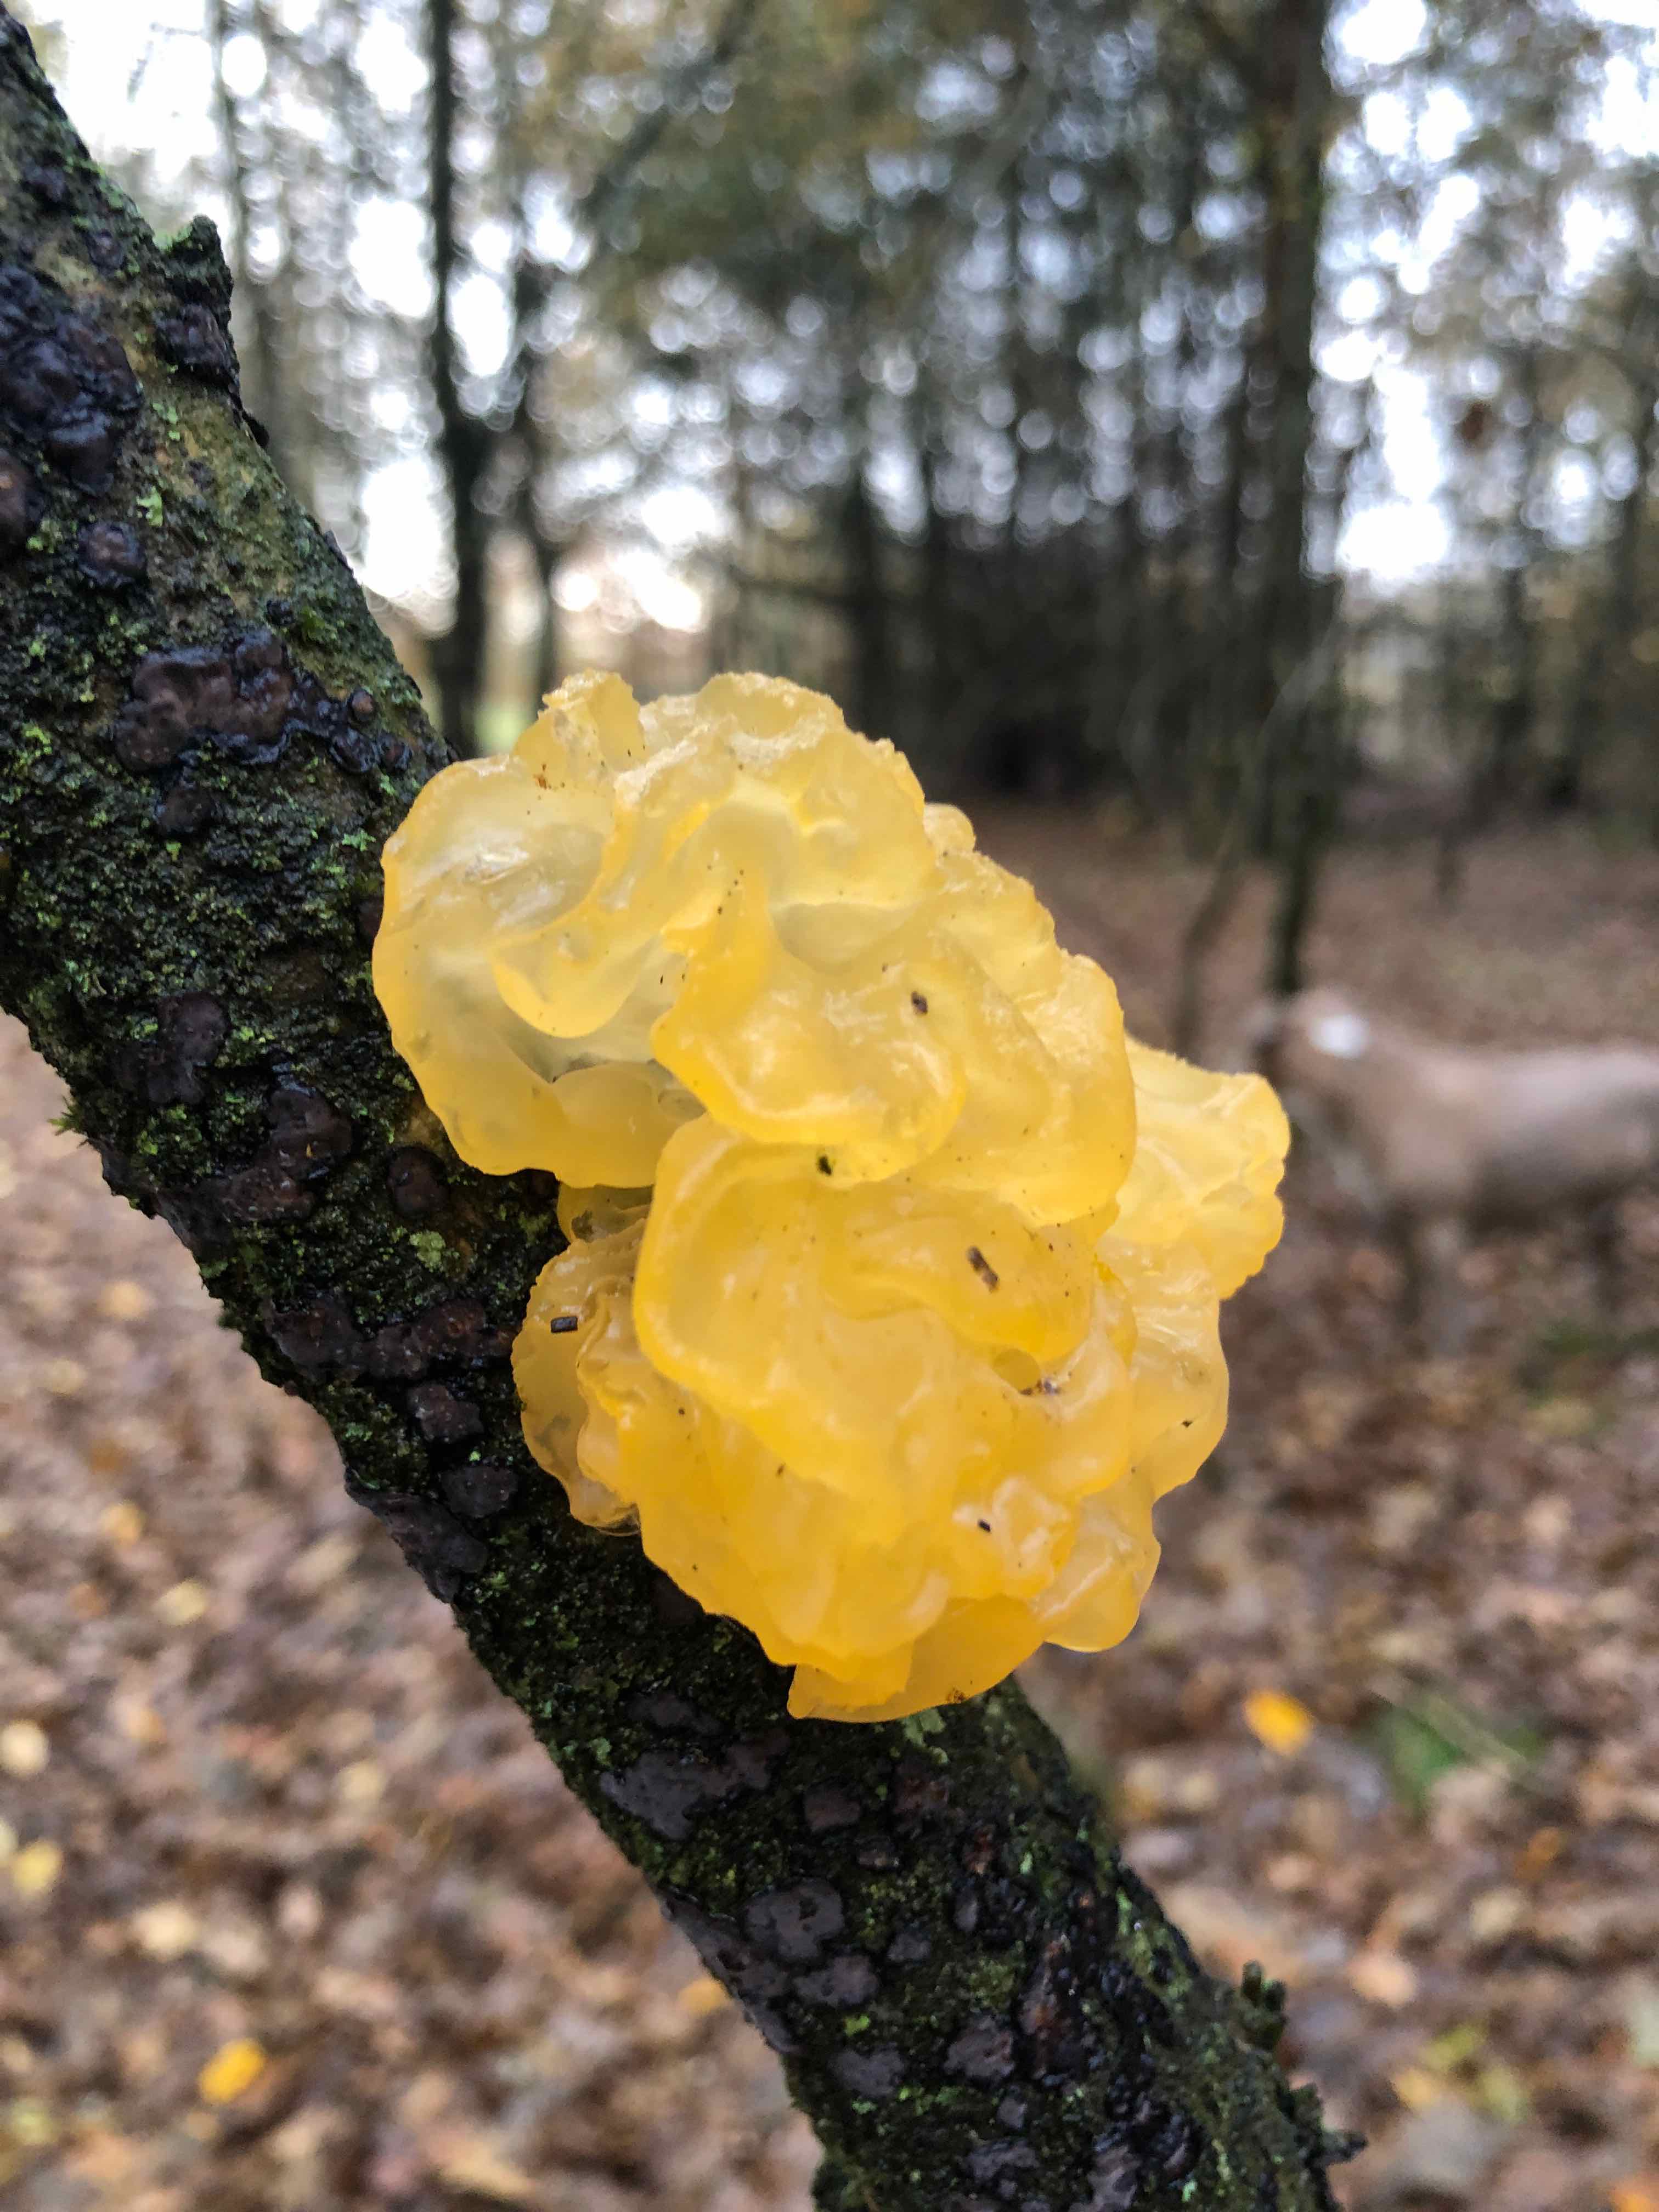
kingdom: Fungi
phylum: Basidiomycota
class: Tremellomycetes
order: Tremellales
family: Tremellaceae
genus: Tremella
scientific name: Tremella mesenterica
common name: gul bævresvamp
